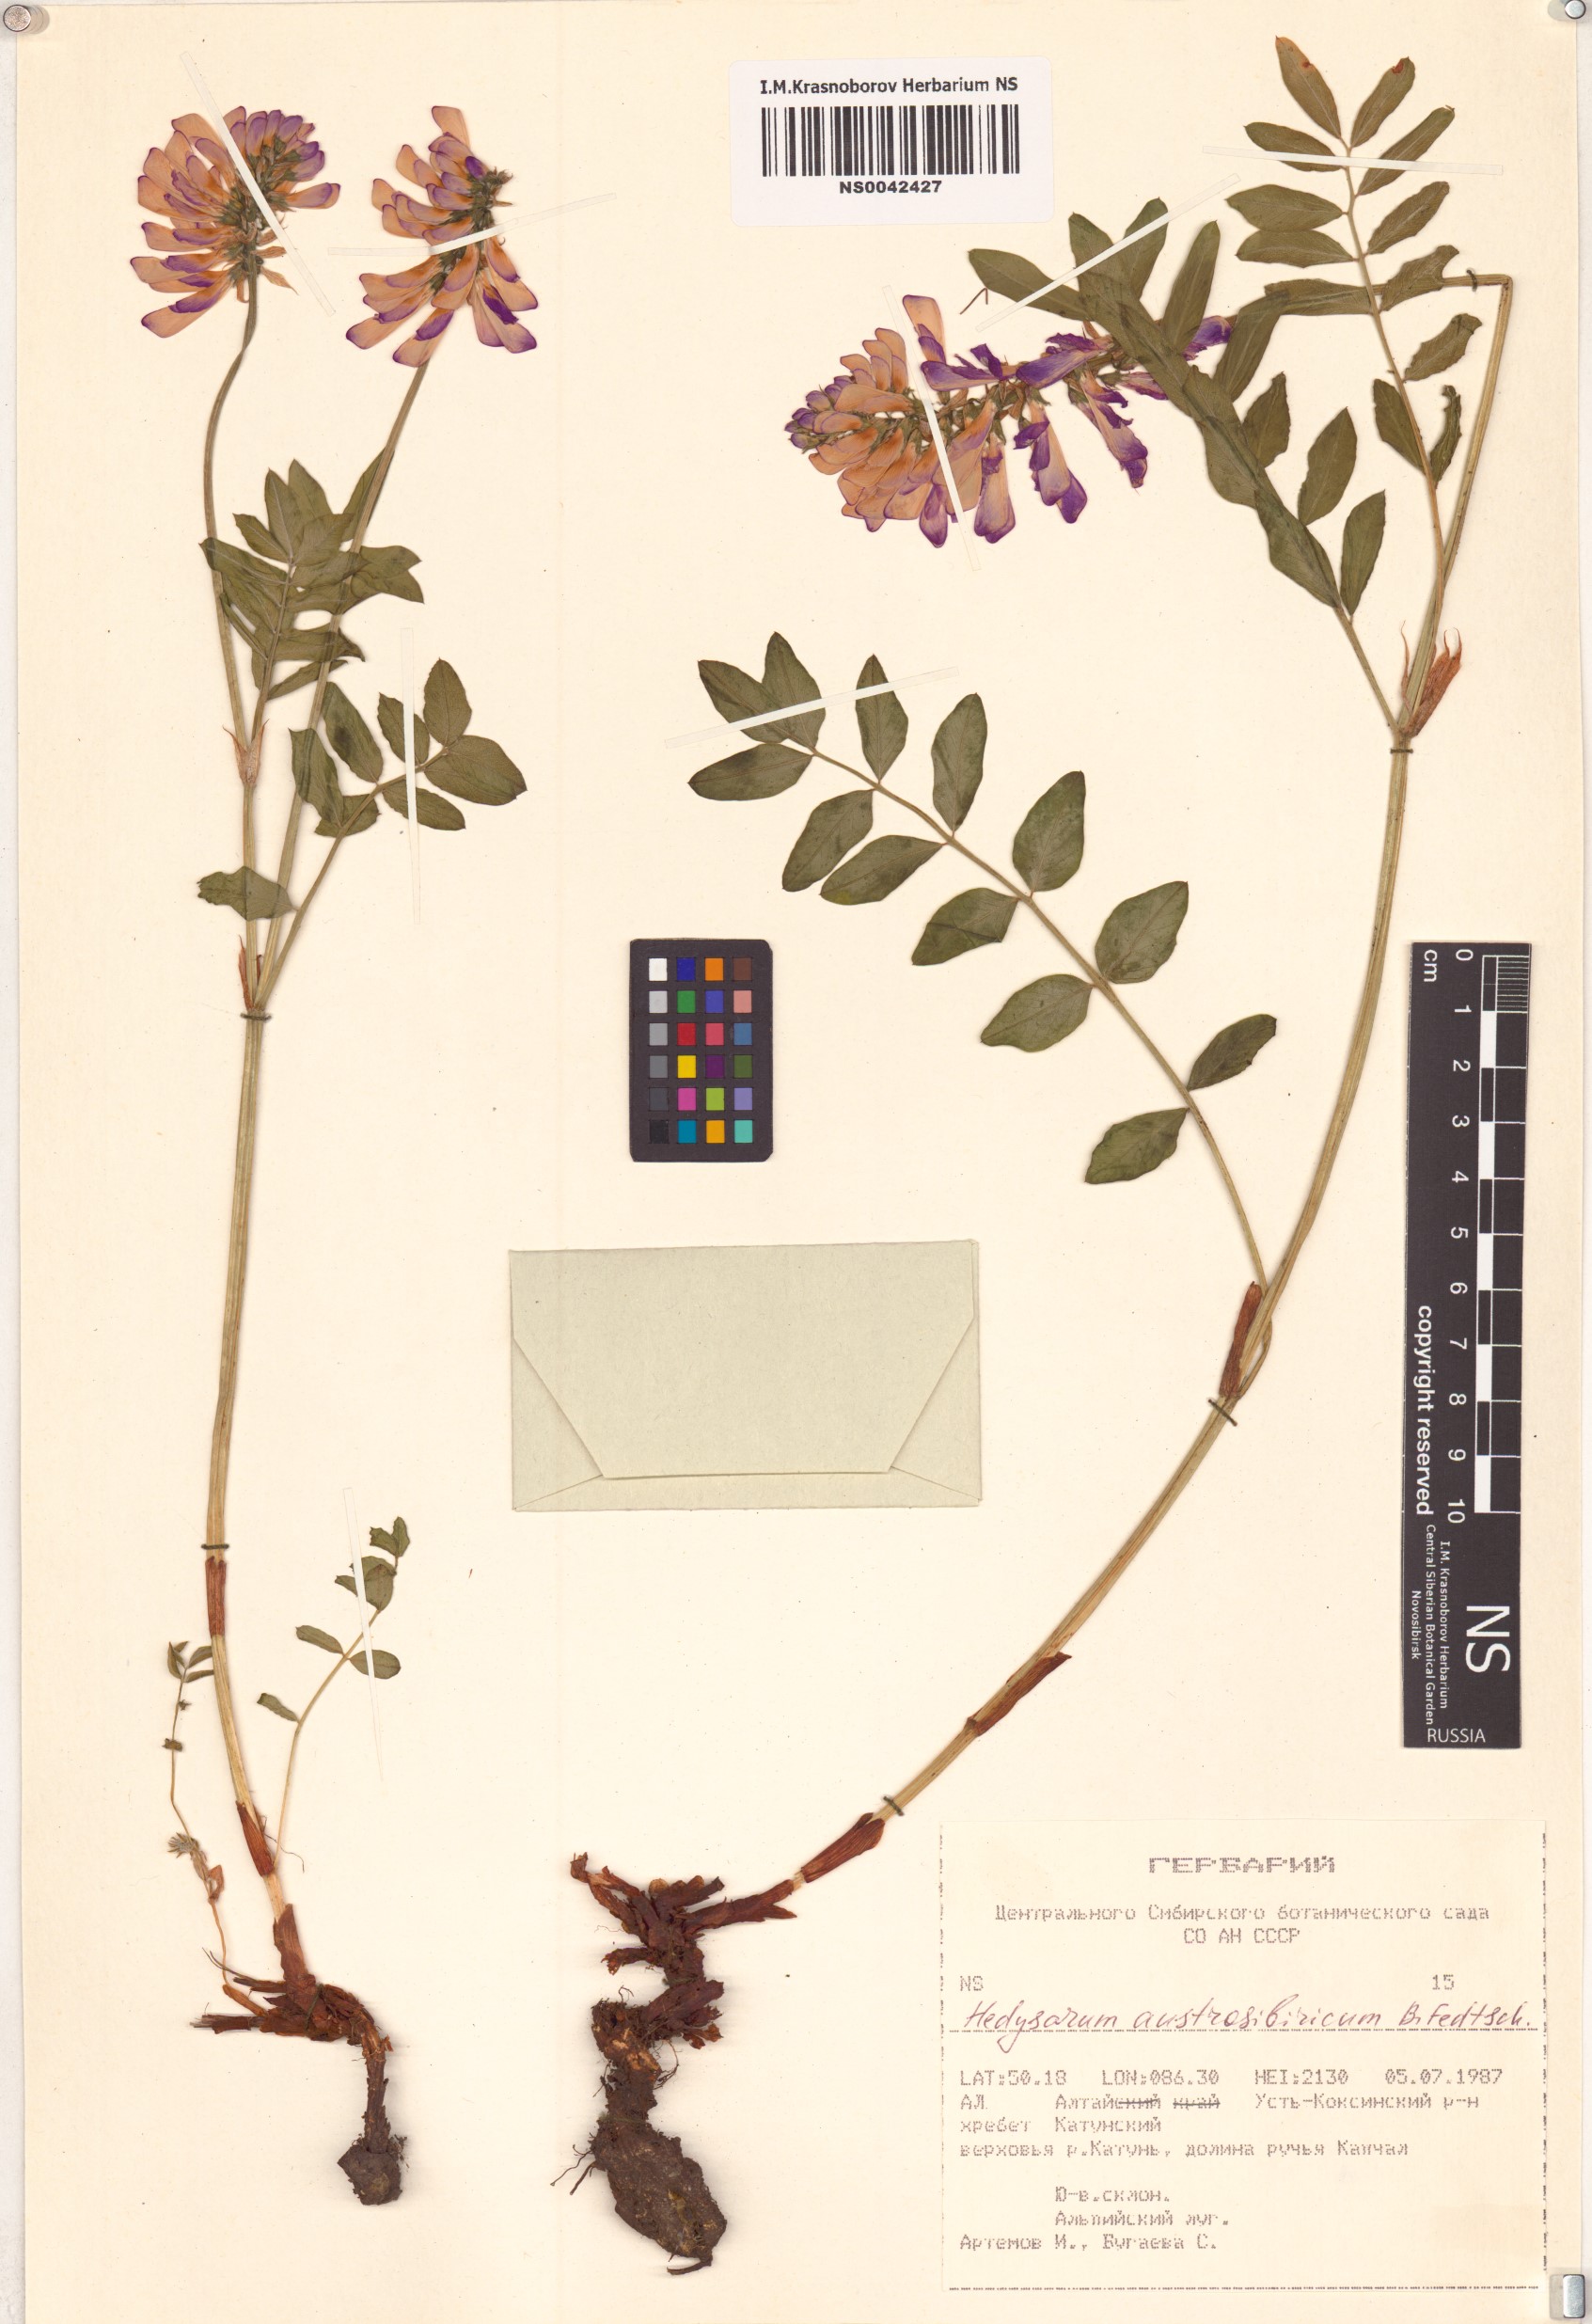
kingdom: Plantae
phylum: Tracheophyta
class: Magnoliopsida
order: Fabales
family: Fabaceae
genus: Hedysarum
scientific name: Hedysarum neglectum
